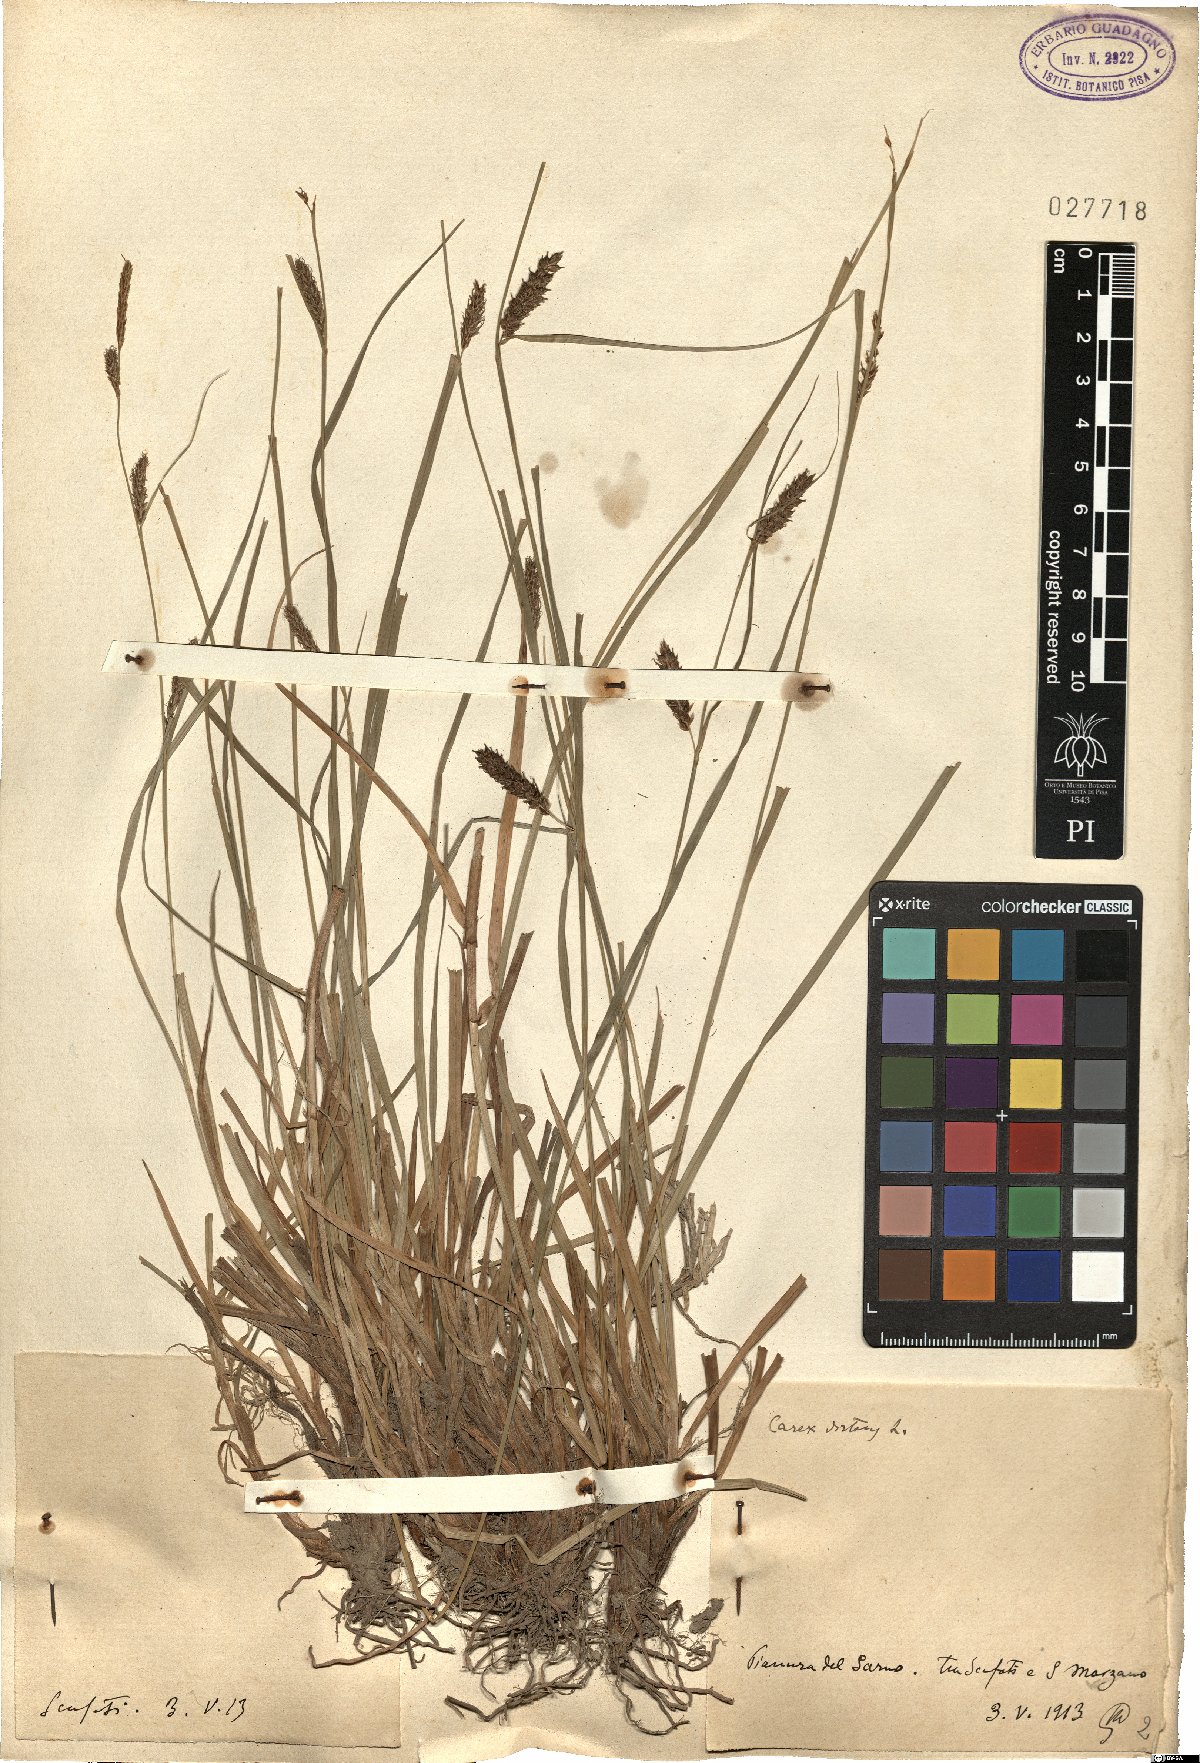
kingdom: Plantae
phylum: Tracheophyta
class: Liliopsida
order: Poales
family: Cyperaceae
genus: Carex
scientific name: Carex distans
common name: Distant sedge
